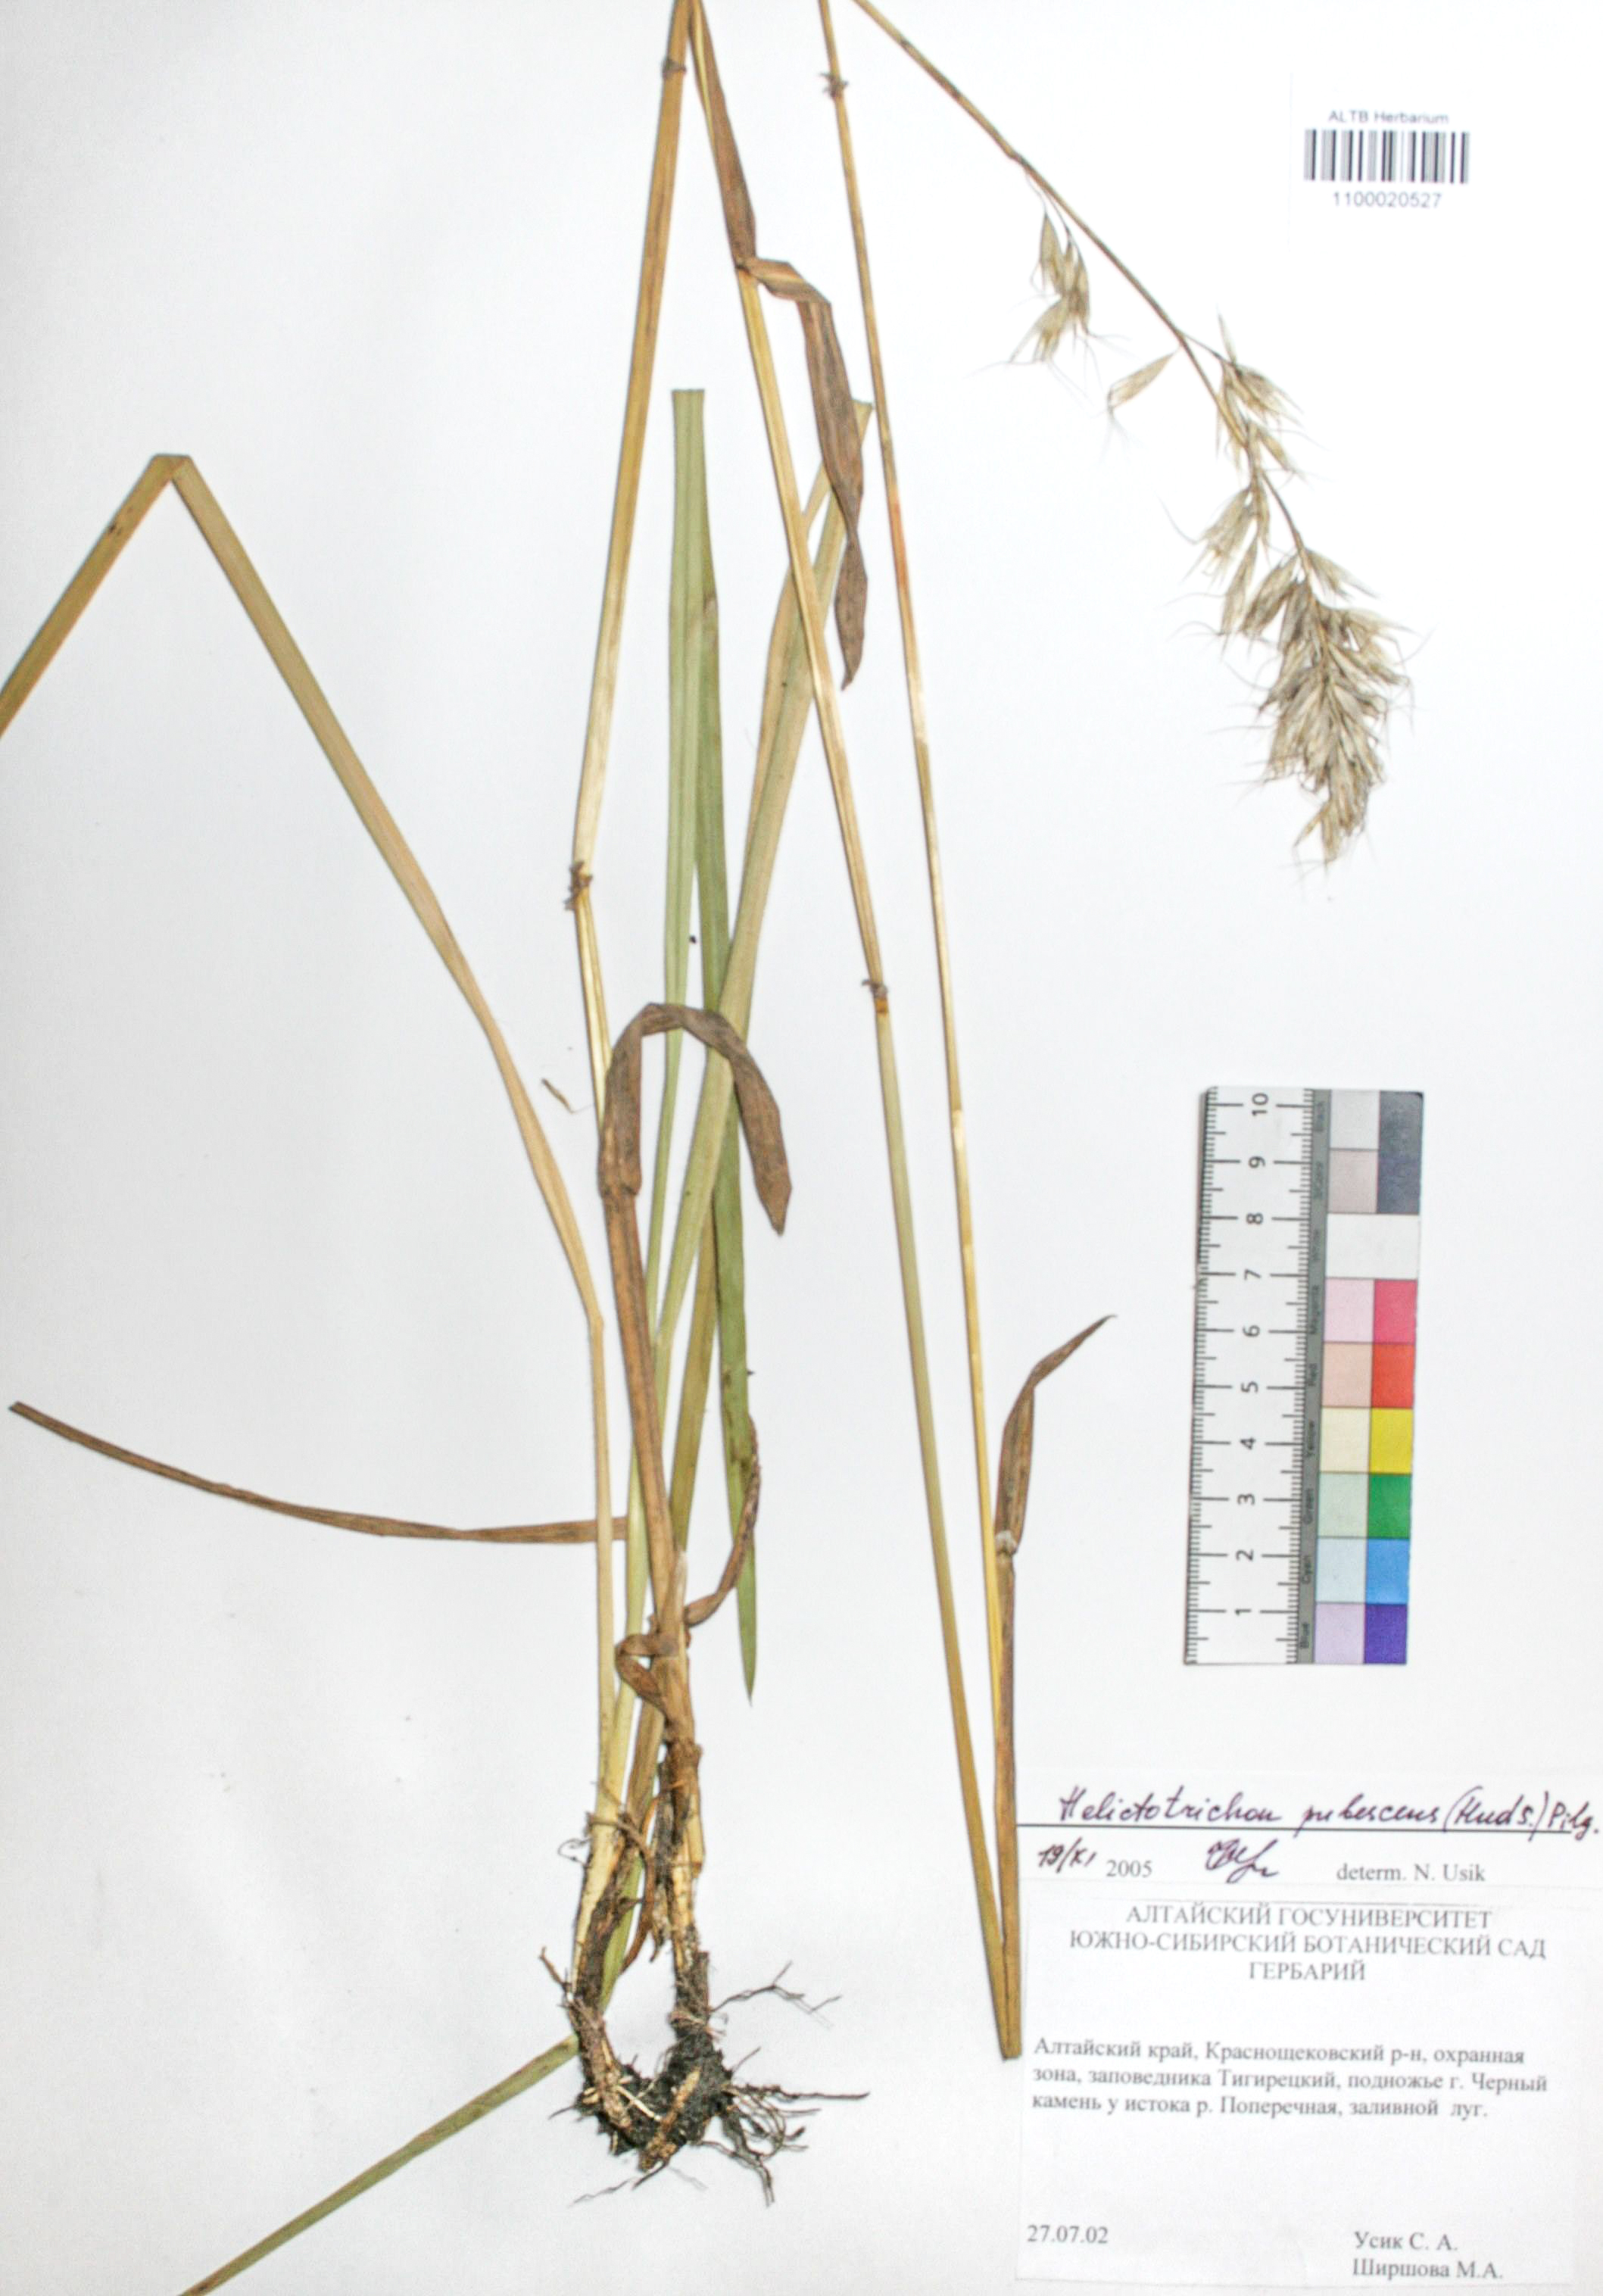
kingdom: Plantae
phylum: Tracheophyta
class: Liliopsida
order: Poales
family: Poaceae
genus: Avenula
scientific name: Avenula pubescens
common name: Downy alpine oatgrass
